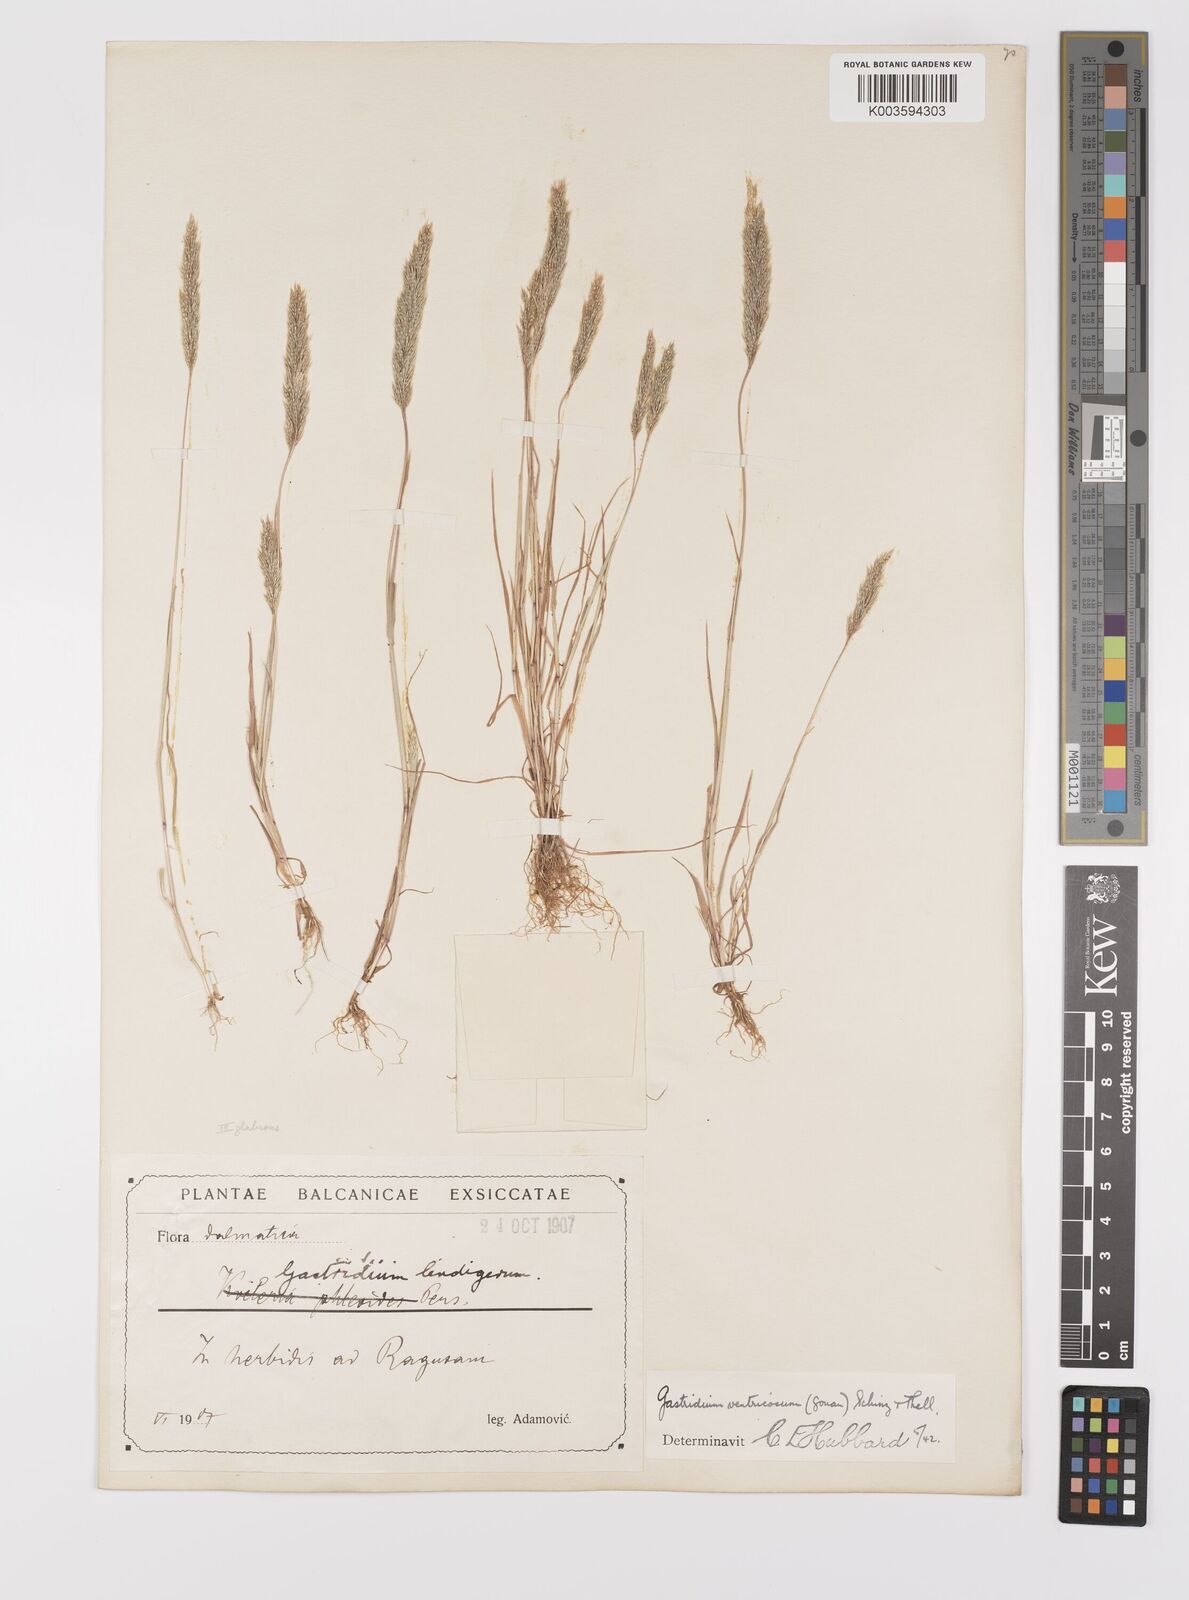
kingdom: Plantae
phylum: Tracheophyta
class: Liliopsida
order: Poales
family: Poaceae
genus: Gastridium
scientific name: Gastridium ventricosum
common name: Nit-grass
